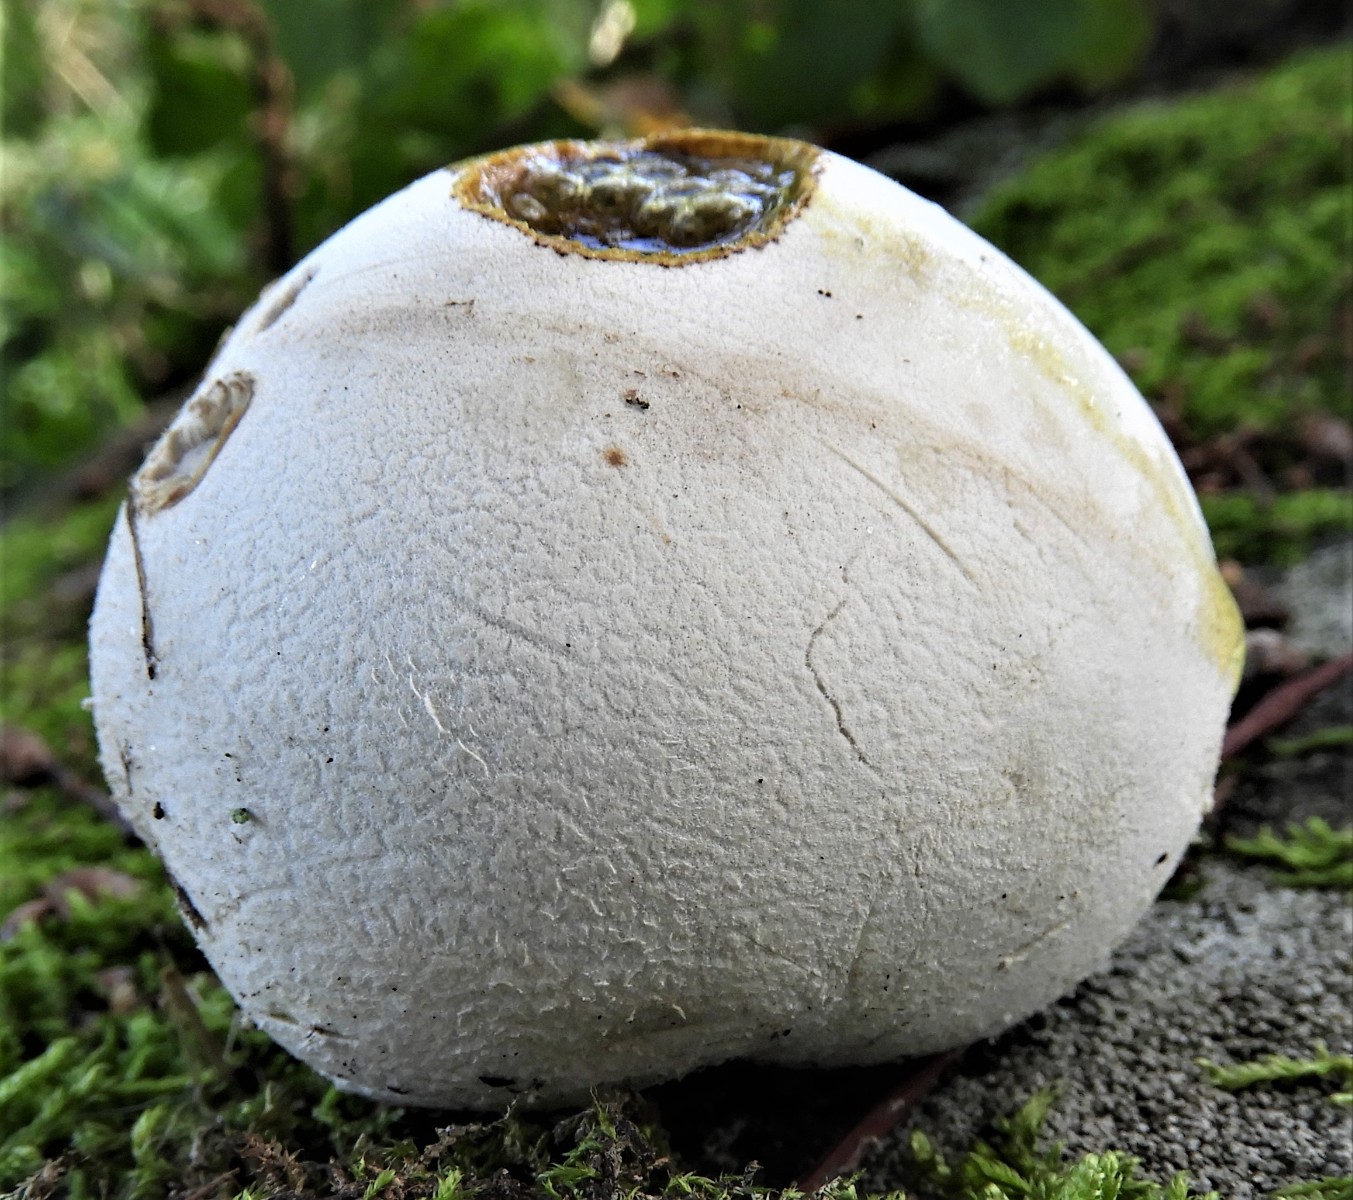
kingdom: Fungi
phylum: Basidiomycota
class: Agaricomycetes
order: Agaricales
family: Lycoperdaceae
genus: Bovista
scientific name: Bovista nigrescens
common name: sortagtig bovist
